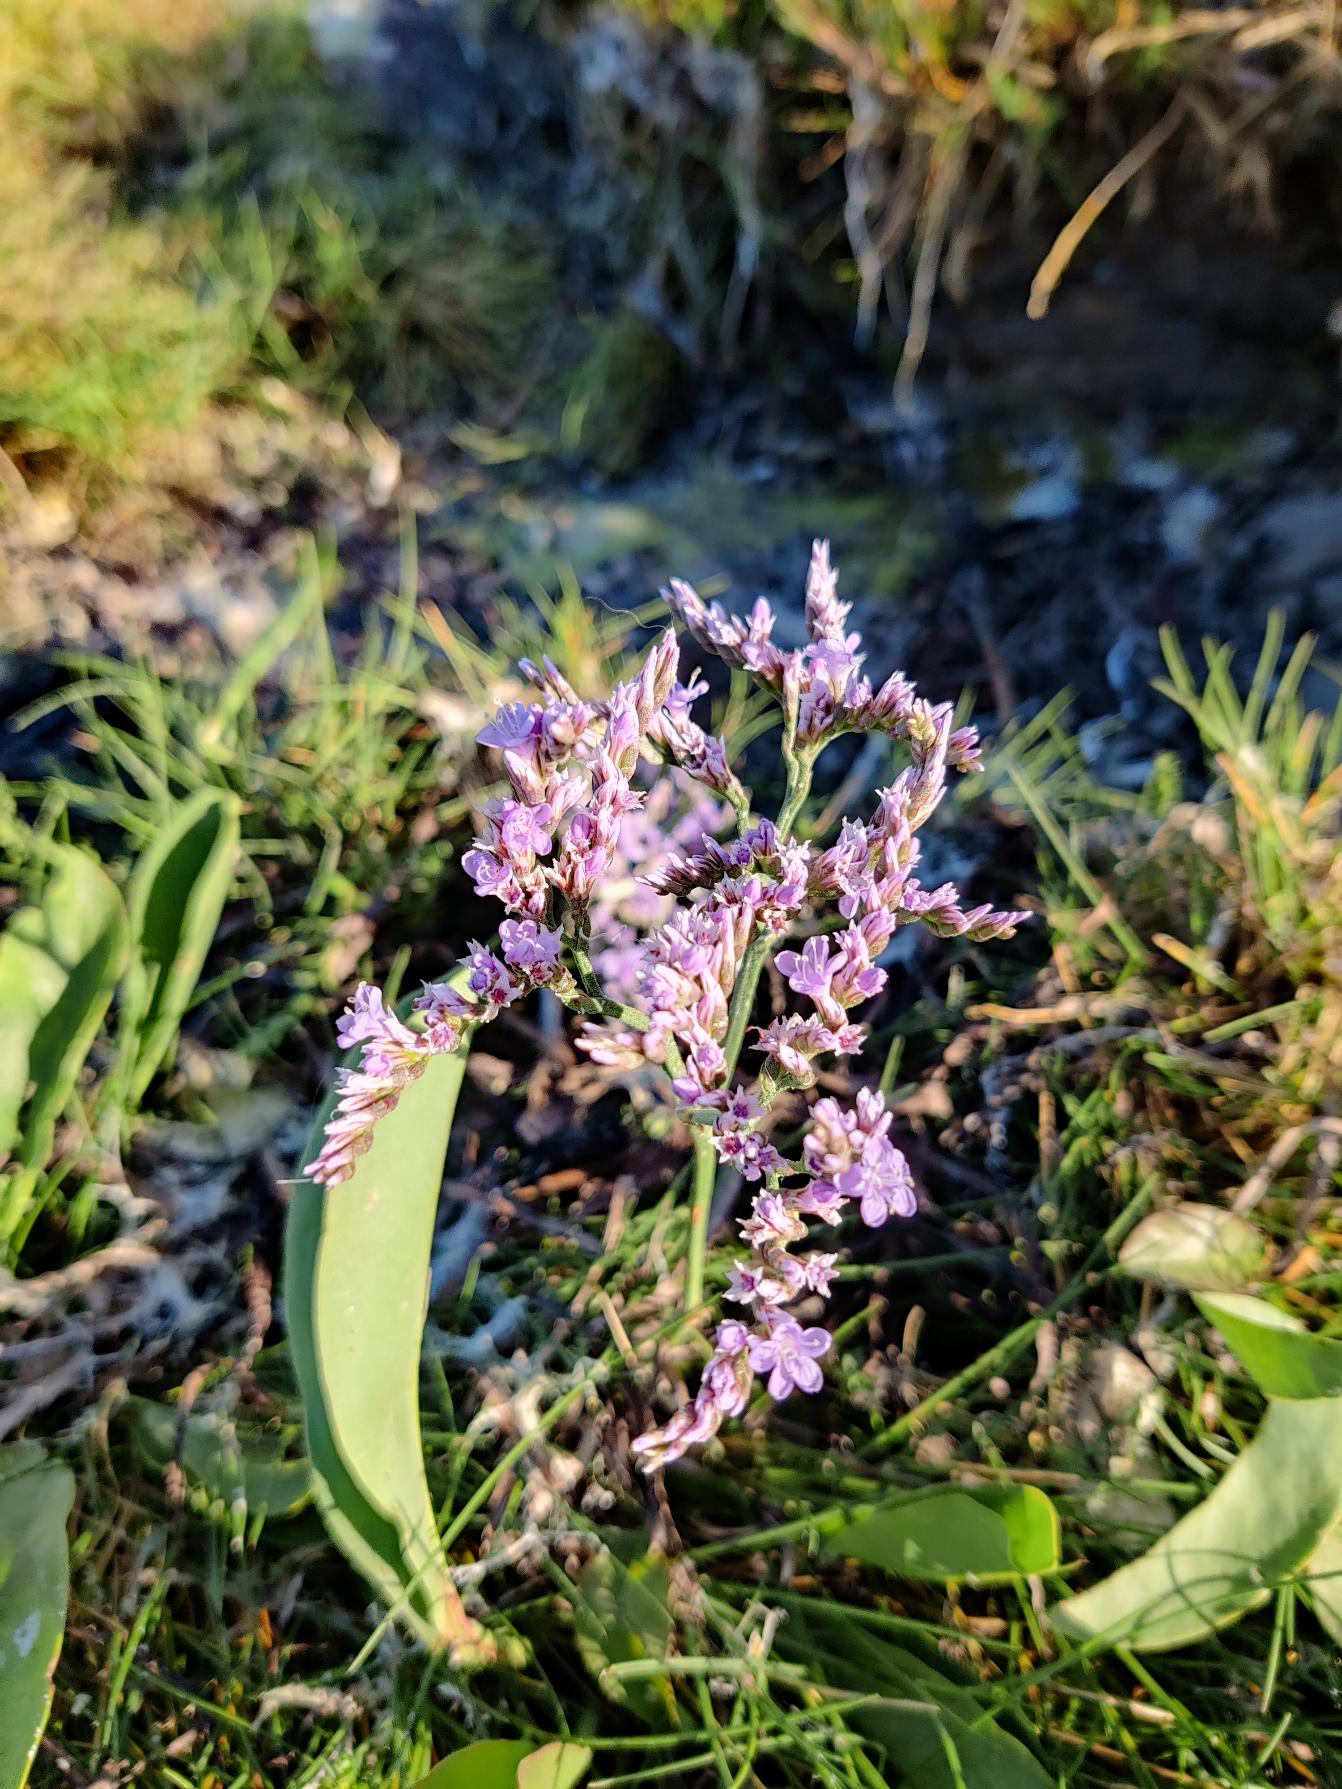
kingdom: Plantae
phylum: Tracheophyta
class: Magnoliopsida
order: Caryophyllales
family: Plumbaginaceae
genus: Limonium
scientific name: Limonium vulgare
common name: Tætblomstret hindebæger
